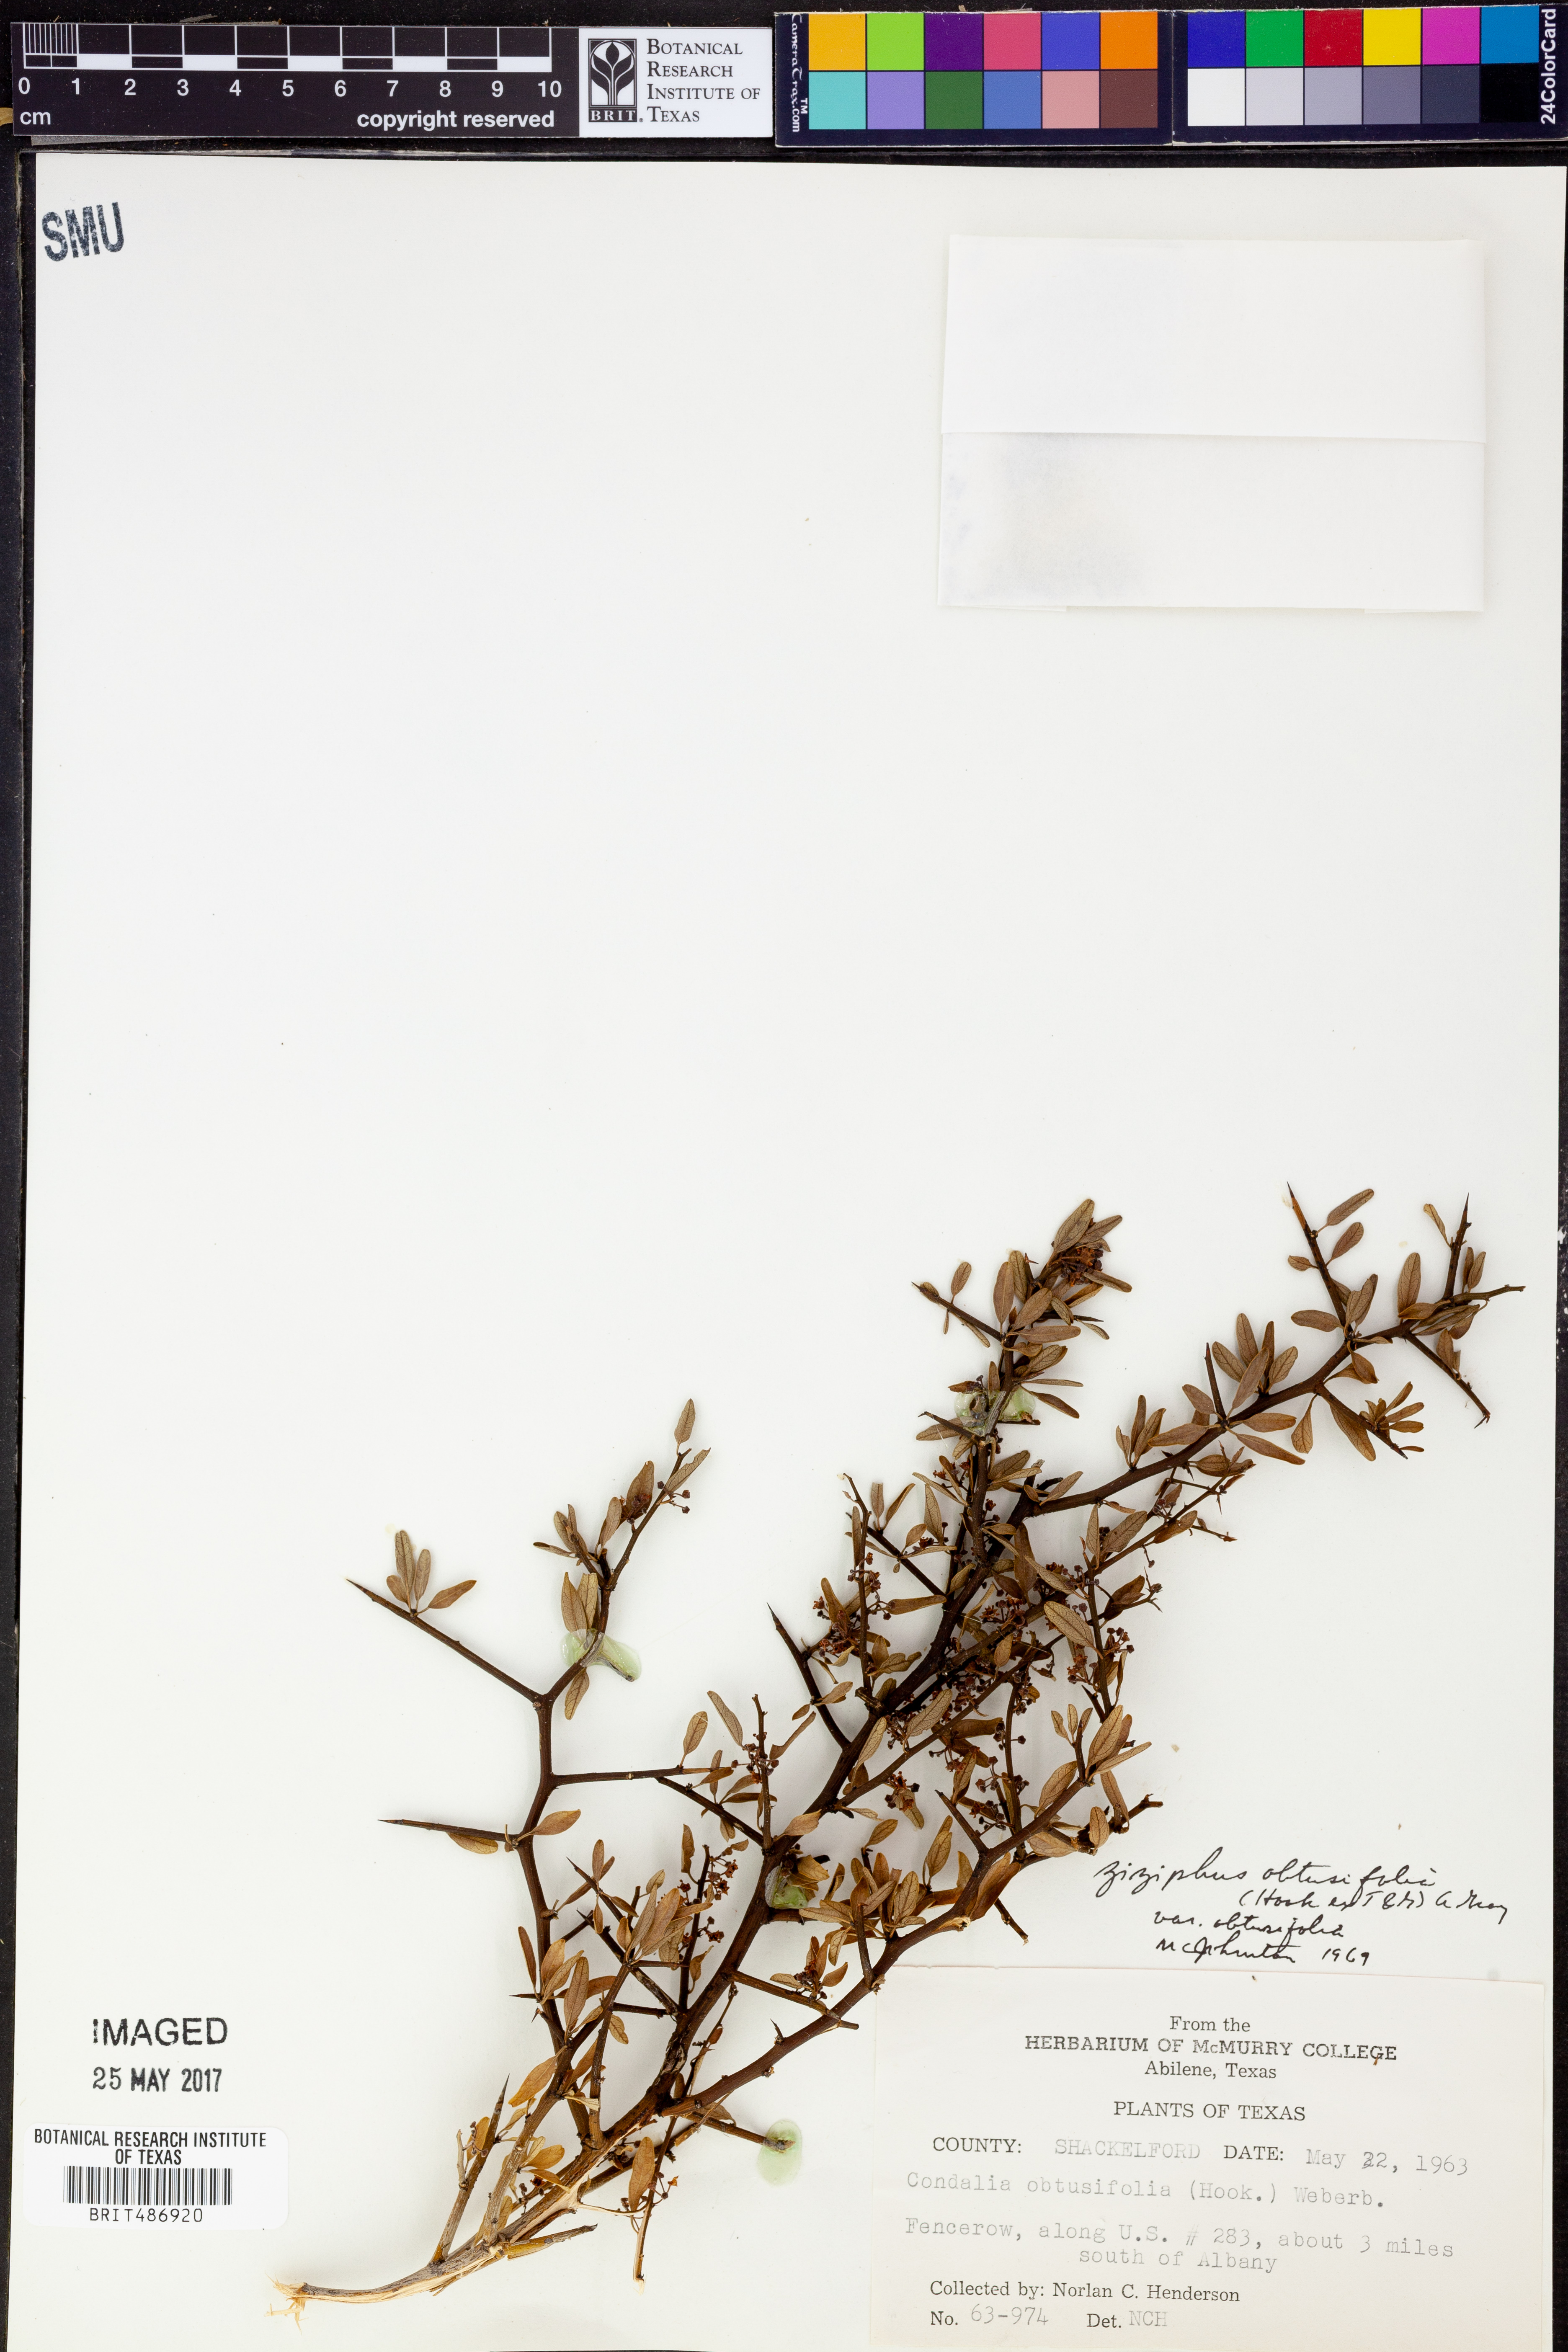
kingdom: Plantae
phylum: Tracheophyta
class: Magnoliopsida
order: Rosales
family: Rhamnaceae
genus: Sarcomphalus
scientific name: Sarcomphalus obtusifolius
